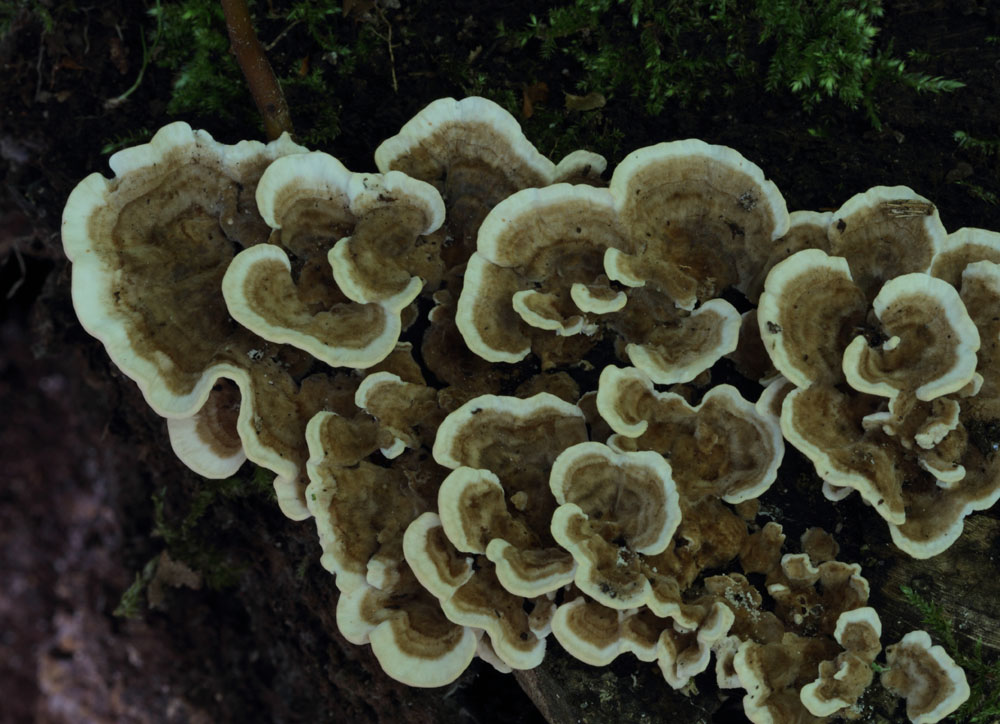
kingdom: Fungi
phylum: Basidiomycota
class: Agaricomycetes
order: Russulales
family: Hericiaceae
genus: Laxitextum
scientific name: Laxitextum bicolor
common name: tvefarvet filtskind
